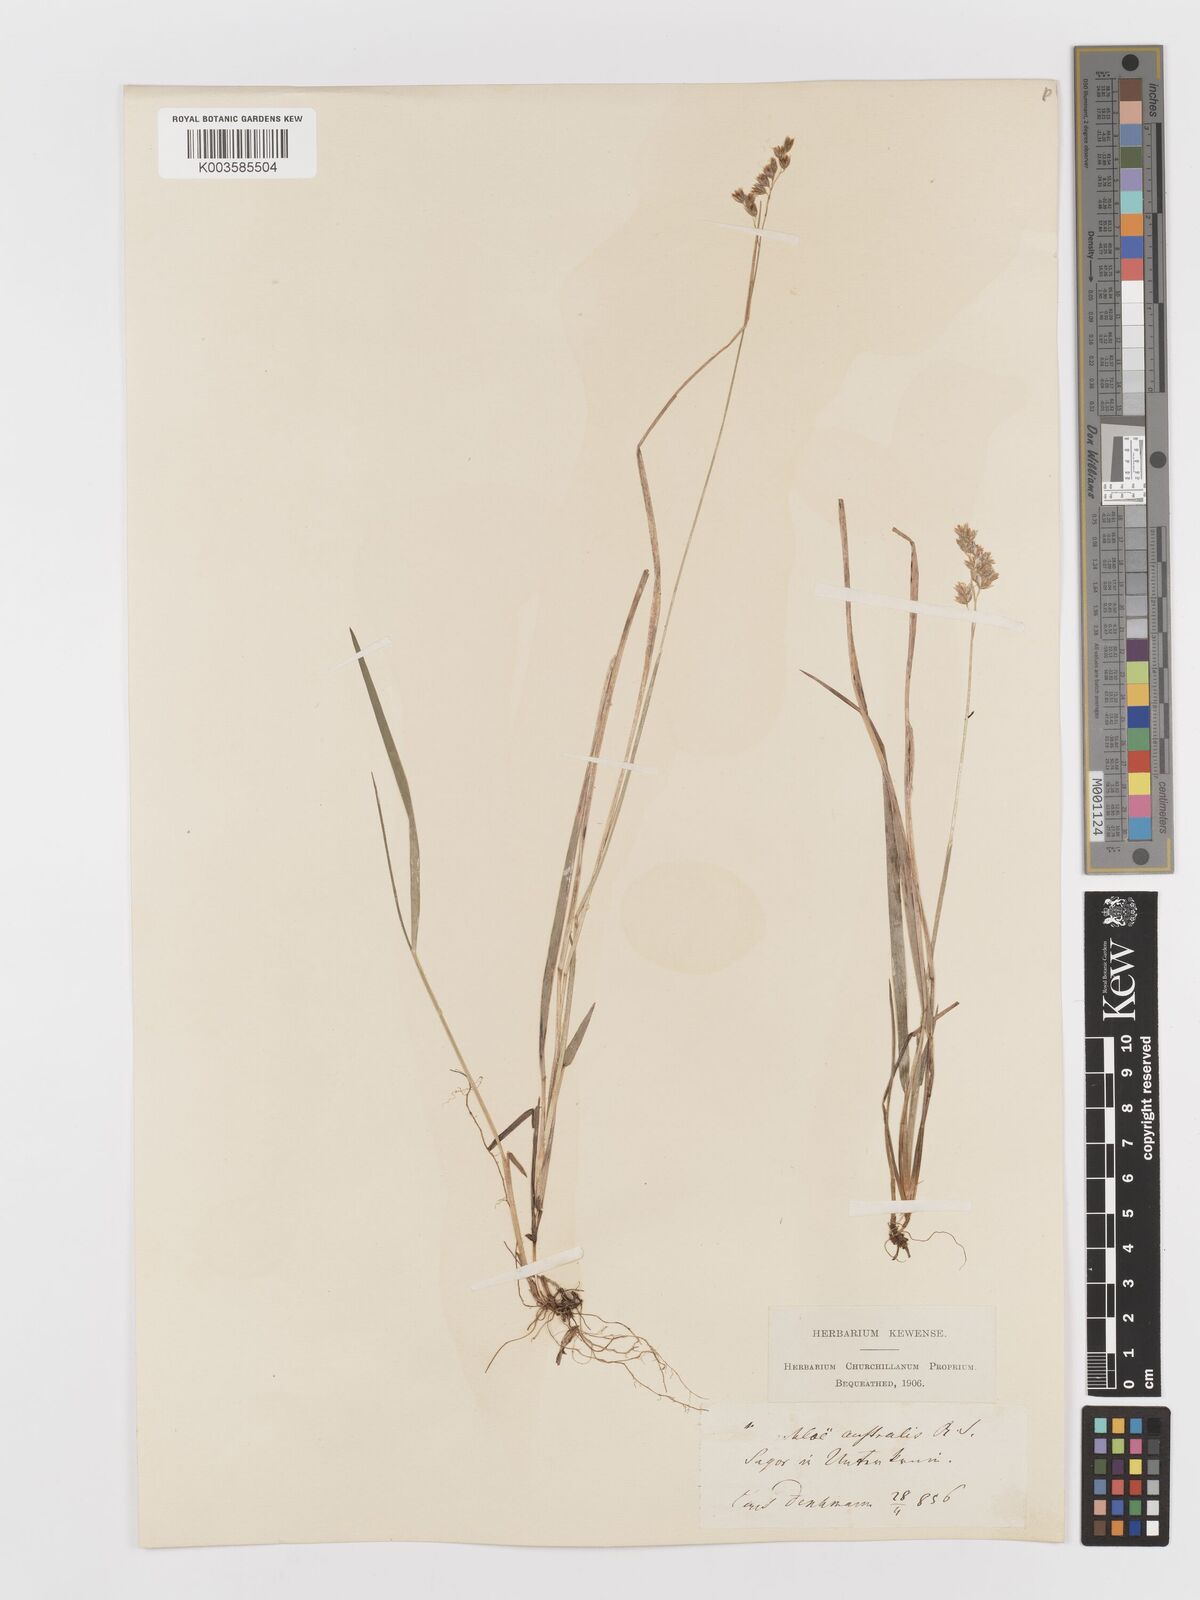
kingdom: Plantae
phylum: Tracheophyta
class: Liliopsida
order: Poales
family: Poaceae
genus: Anthoxanthum
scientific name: Anthoxanthum australe
